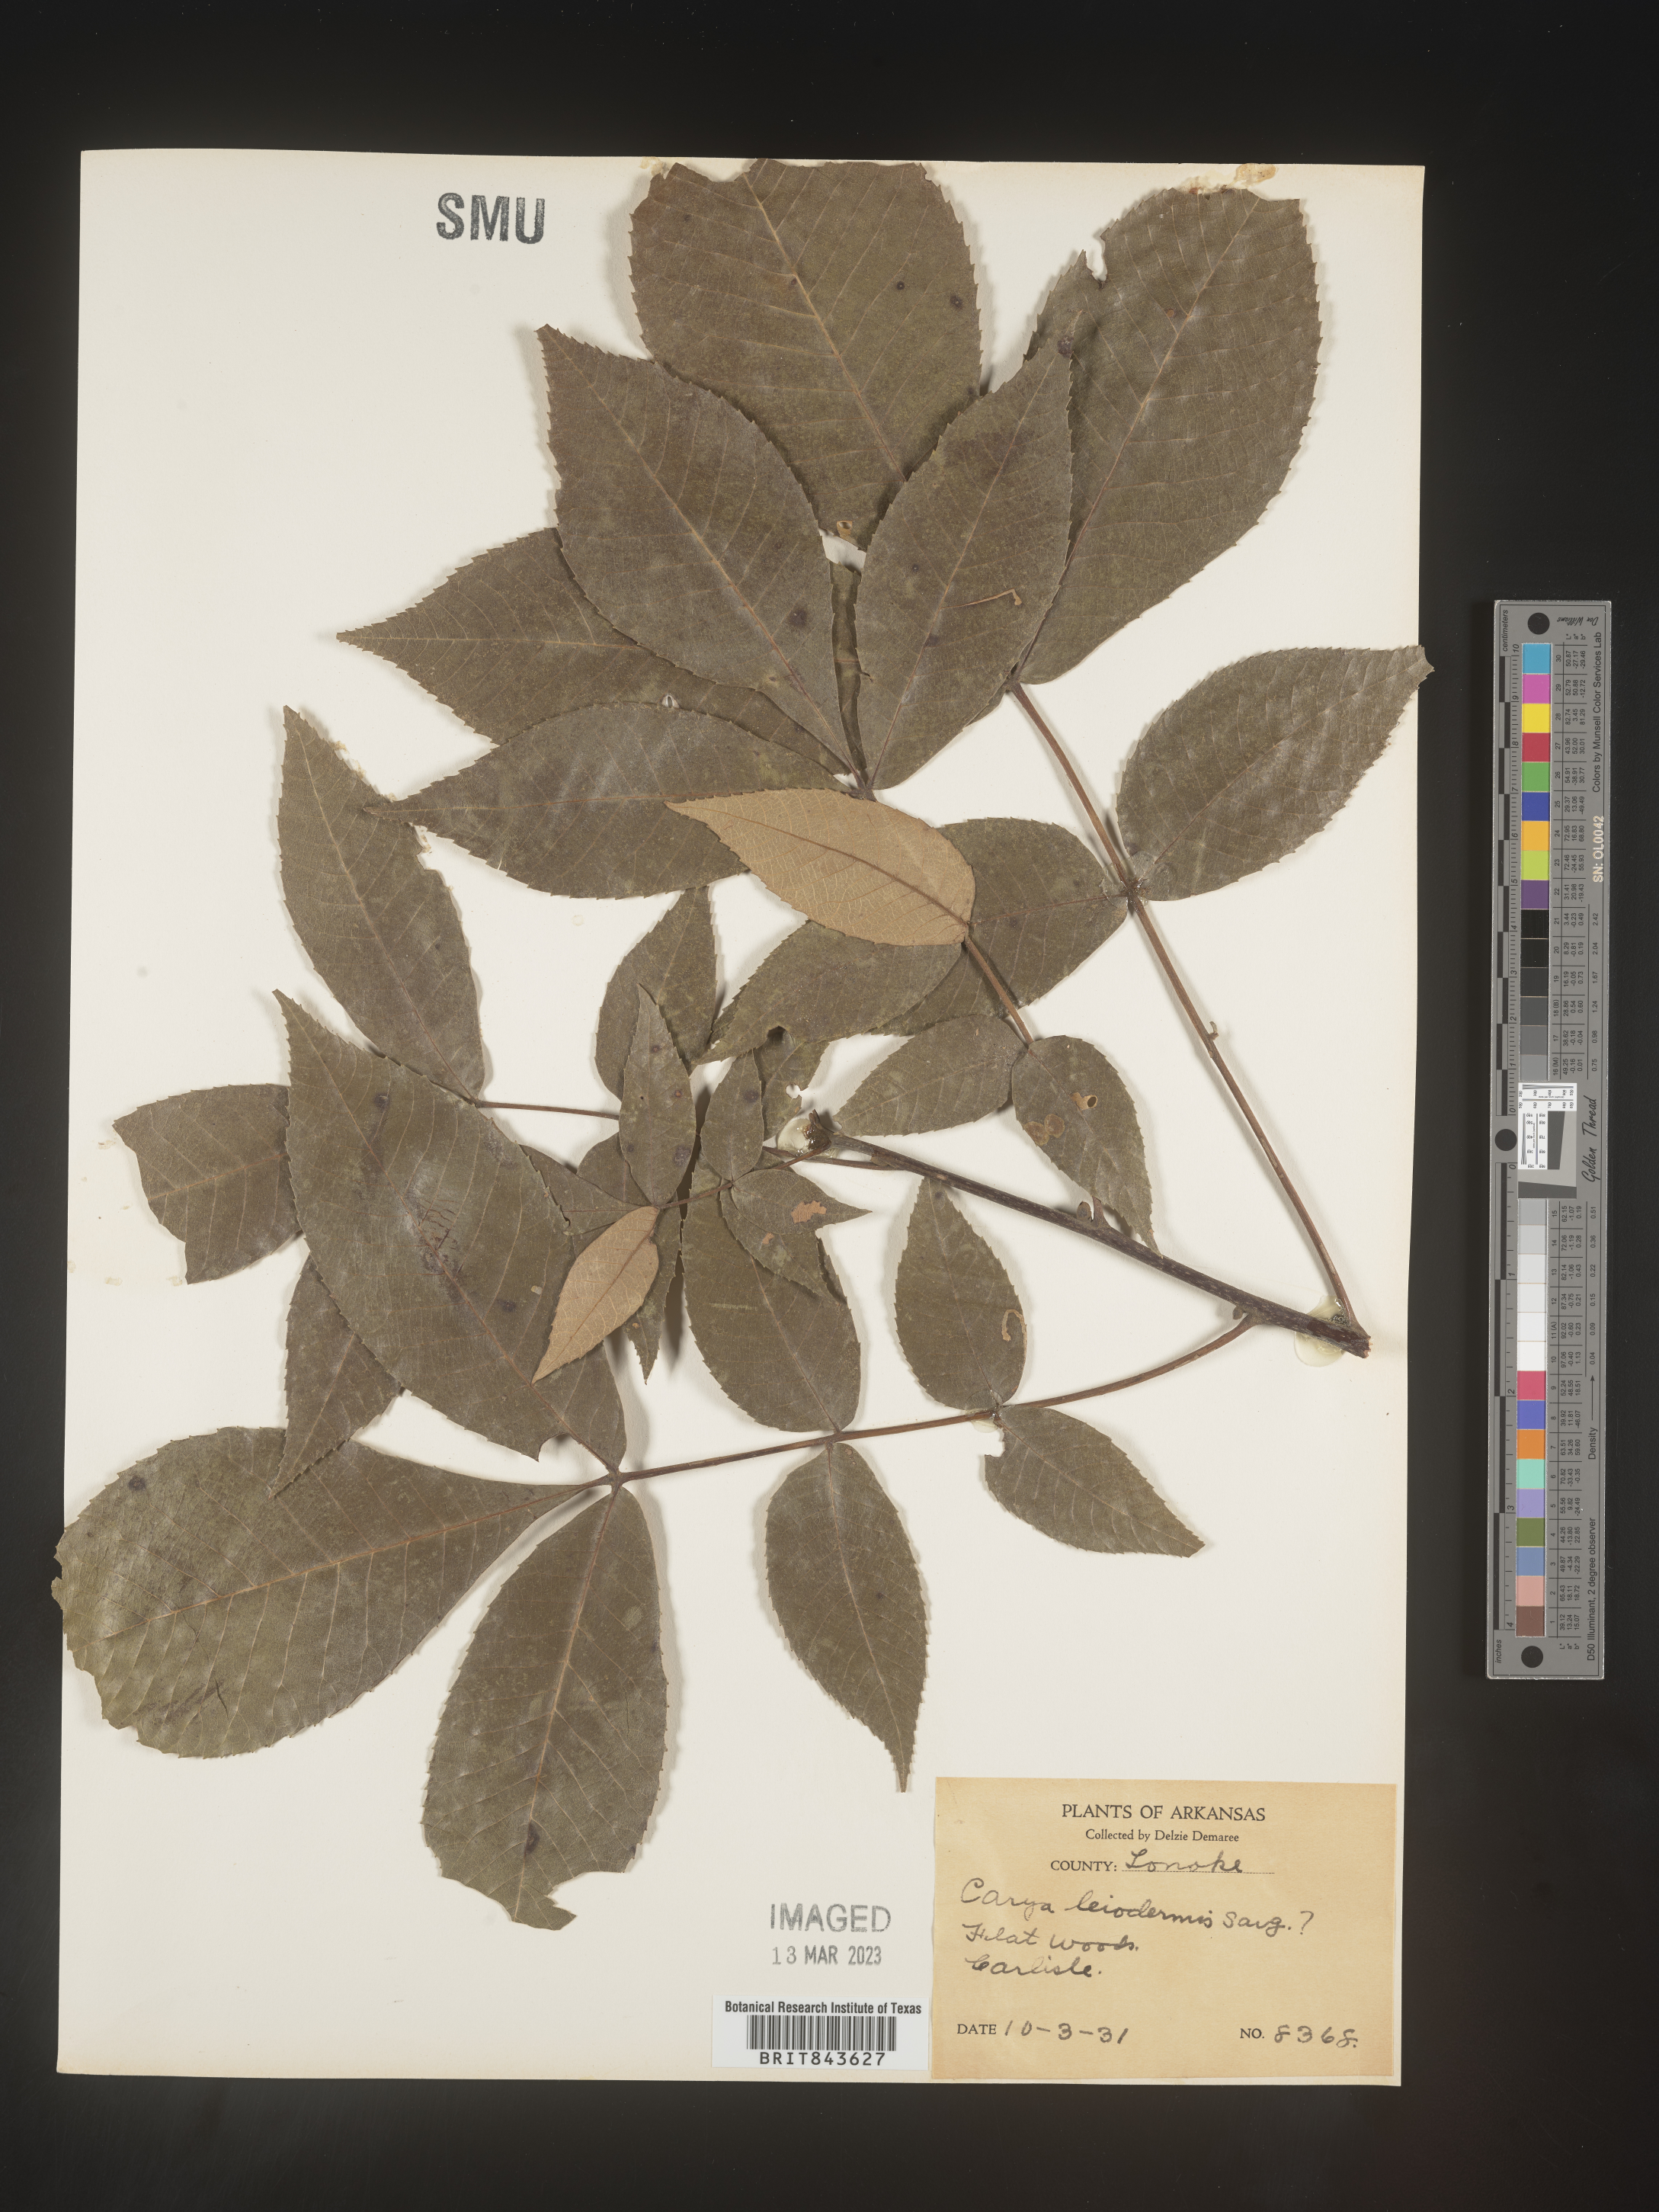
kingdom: Plantae
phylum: Tracheophyta
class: Magnoliopsida
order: Fagales
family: Juglandaceae
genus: Carya
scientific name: Carya glabra
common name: Pignut hickory
